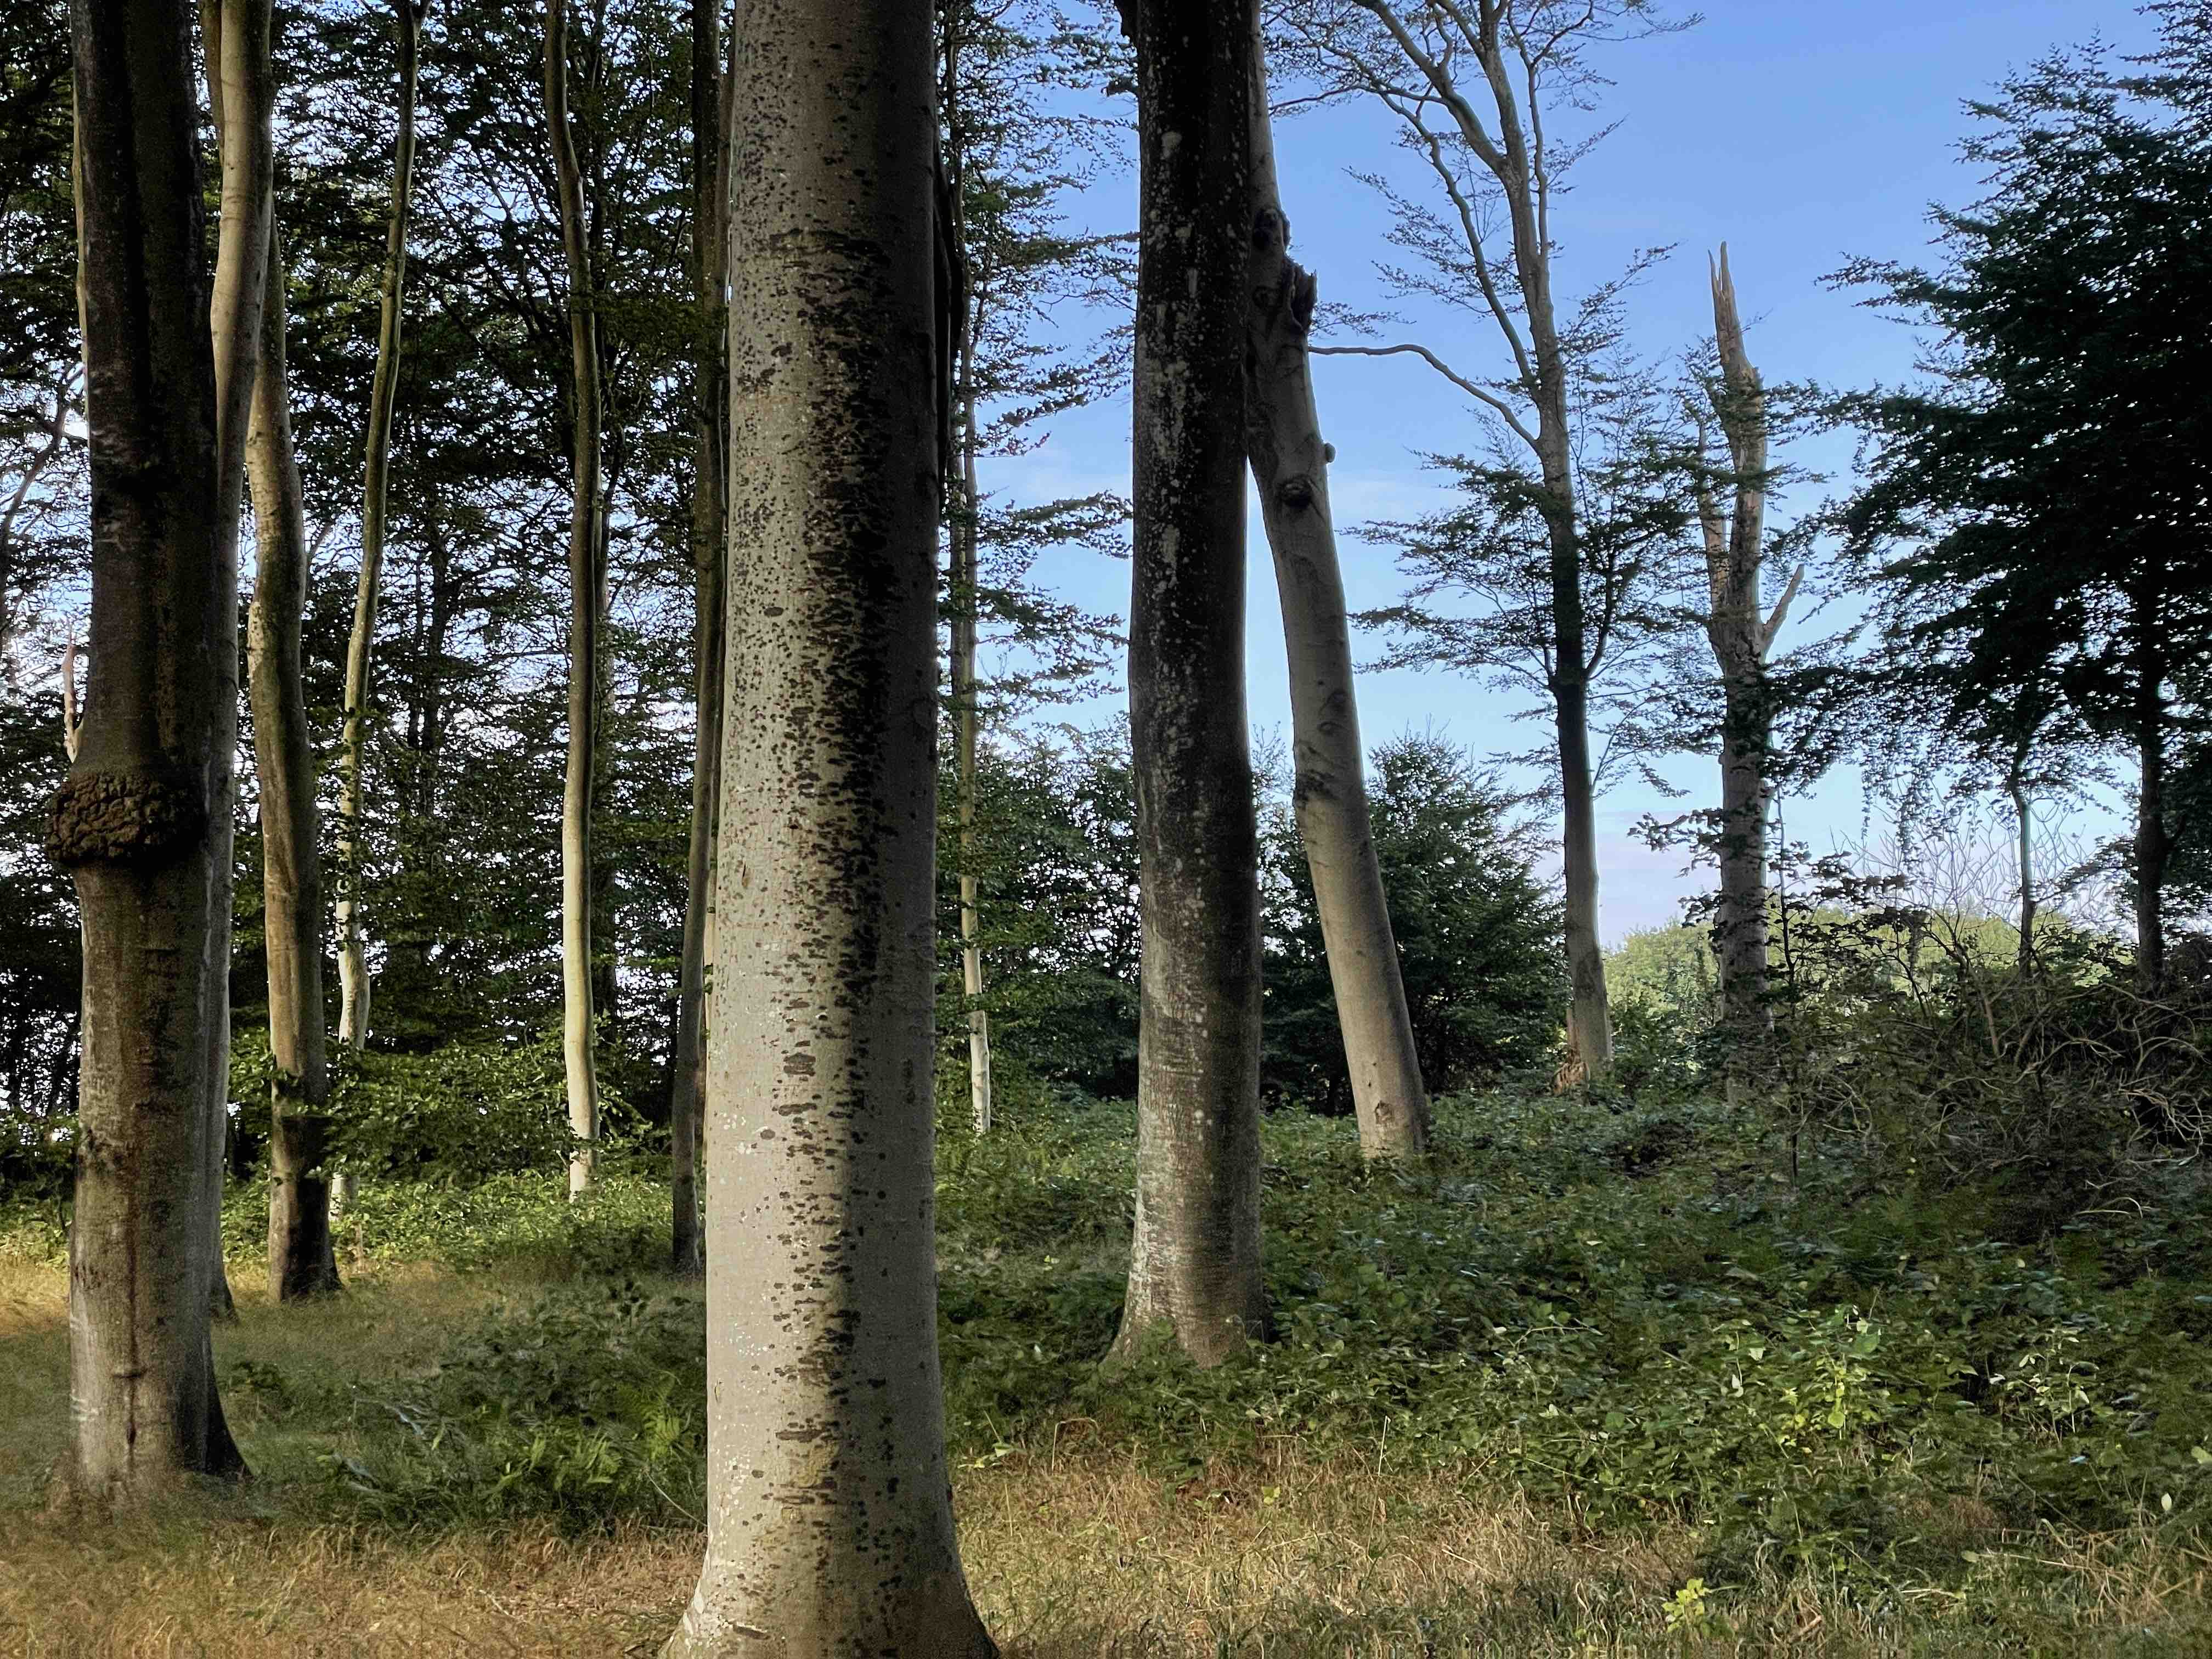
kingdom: Fungi
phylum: Ascomycota
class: Leotiomycetes
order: Rhytismatales
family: Ascodichaenaceae
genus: Ascodichaena
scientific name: Ascodichaena rugosa
